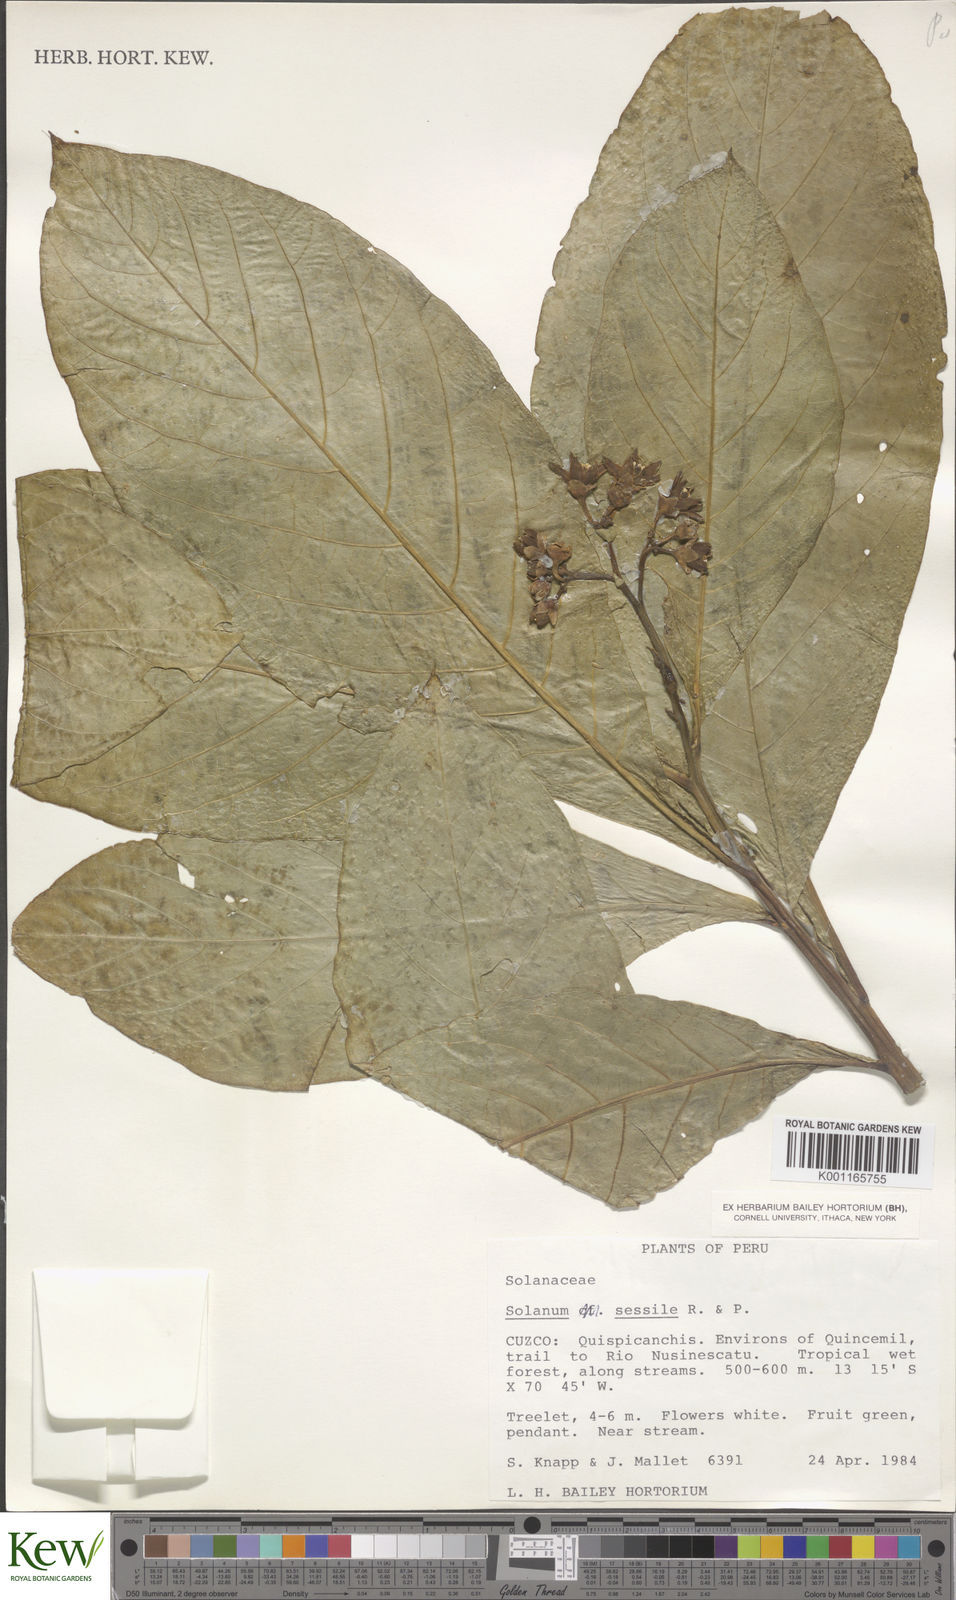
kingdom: Plantae
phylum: Tracheophyta
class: Magnoliopsida
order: Solanales
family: Solanaceae
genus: Solanum
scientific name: Solanum sessile
